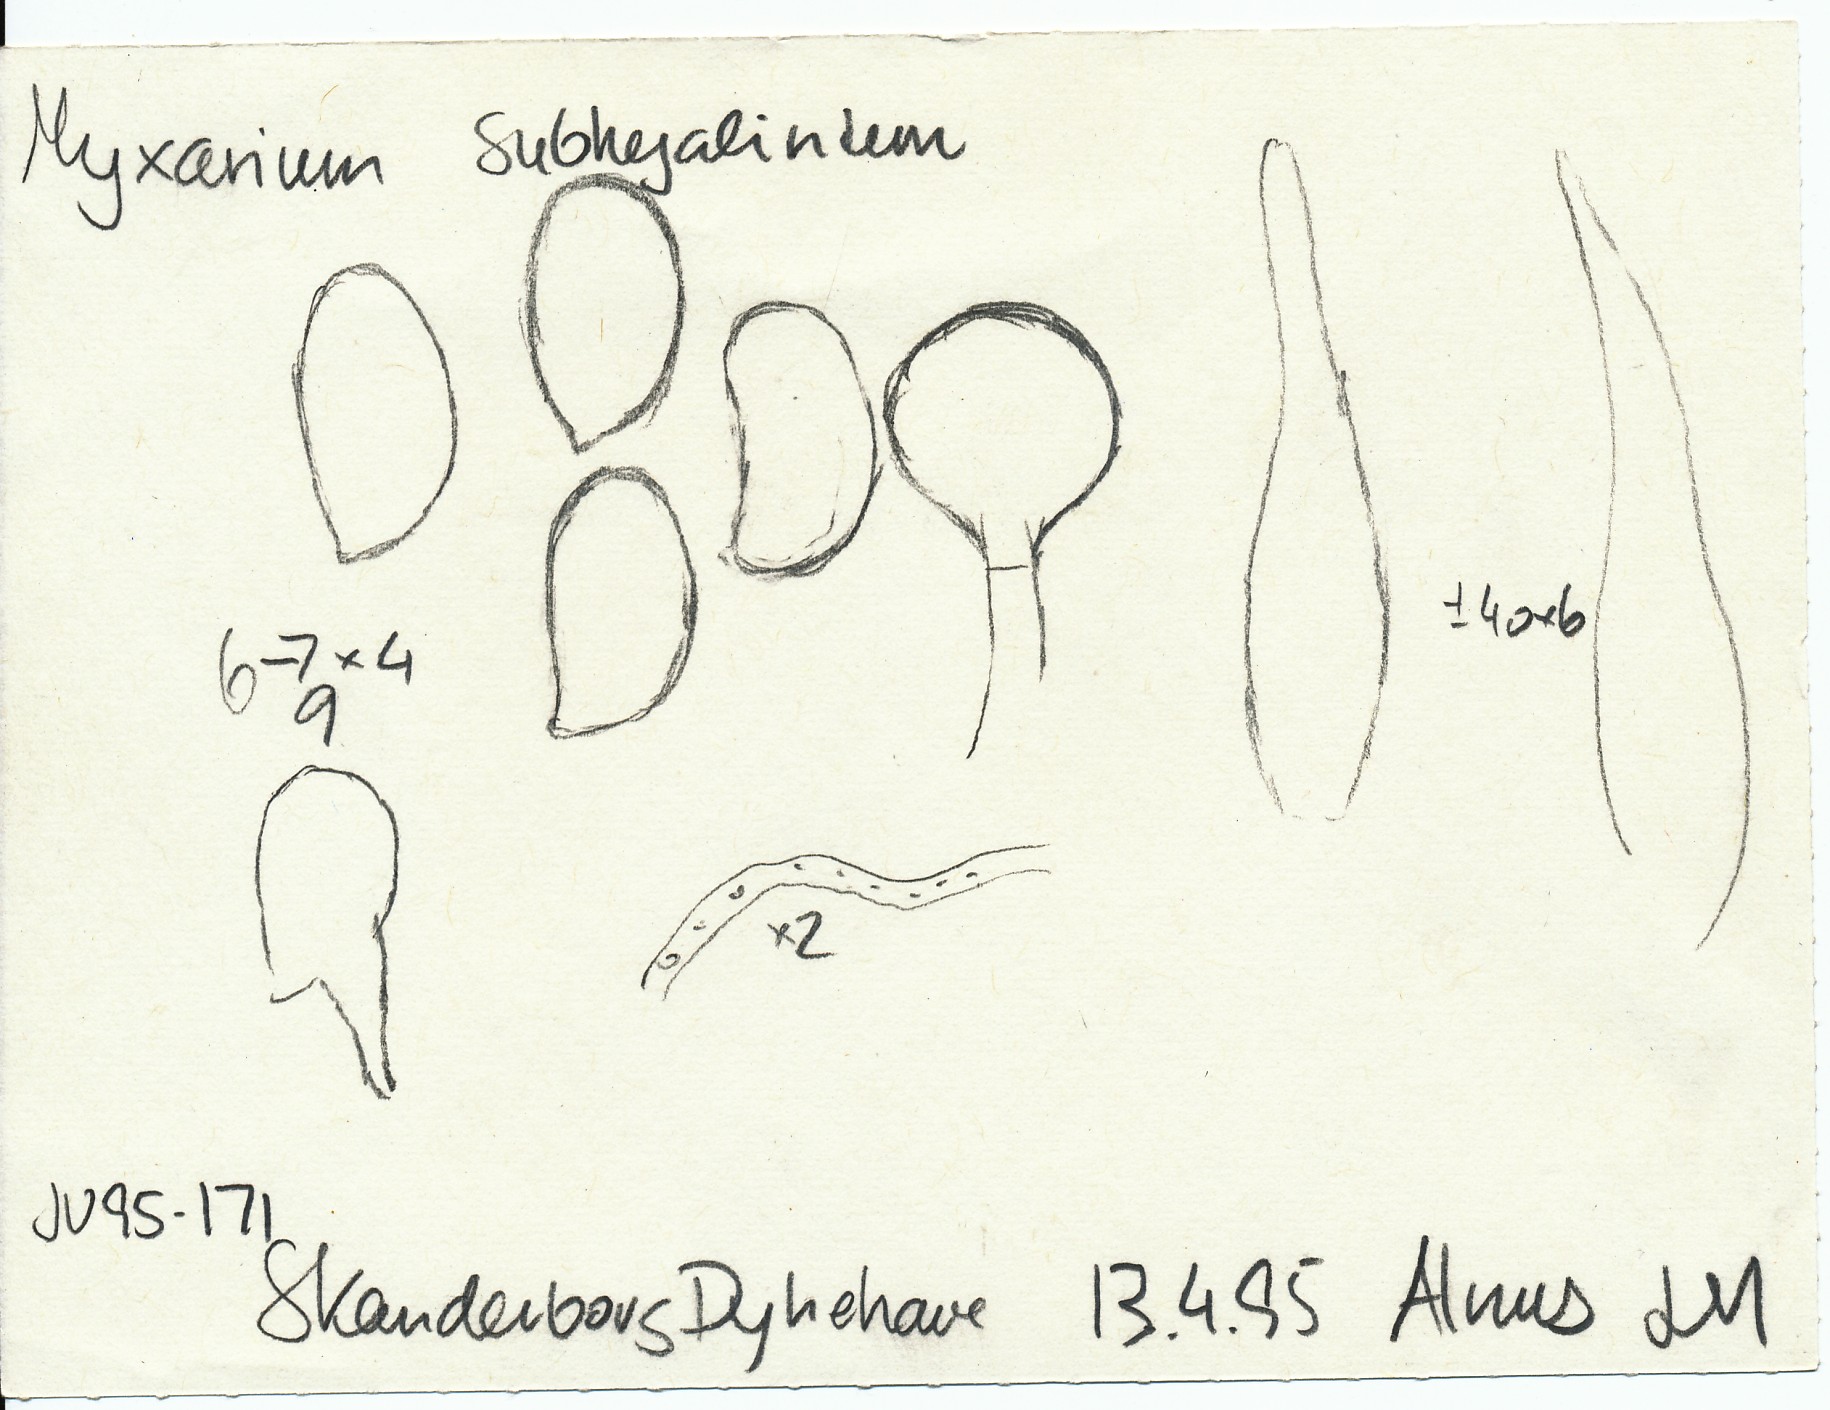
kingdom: Fungi
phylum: Basidiomycota
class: Agaricomycetes
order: Auriculariales
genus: Stypella
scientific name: Stypella grilletii
